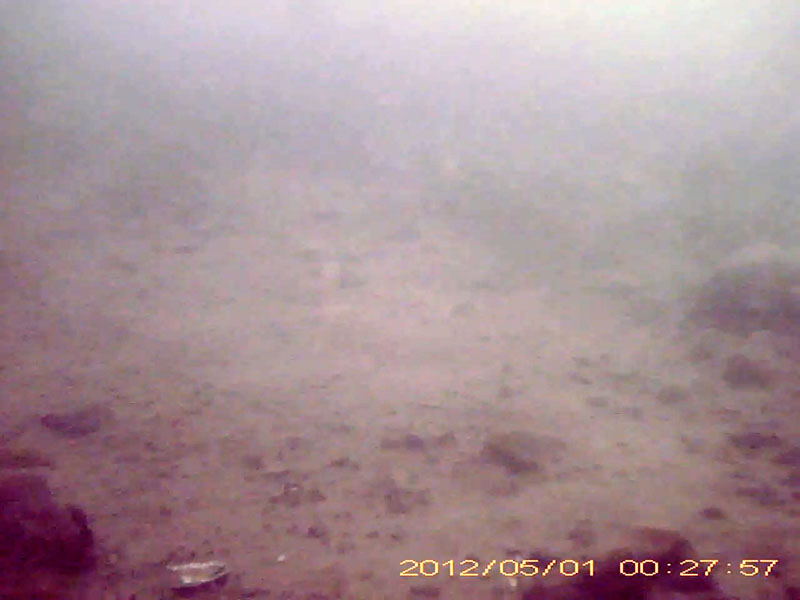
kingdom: Animalia
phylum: Chordata
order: Perciformes
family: Gobiidae
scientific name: Gobiidae
